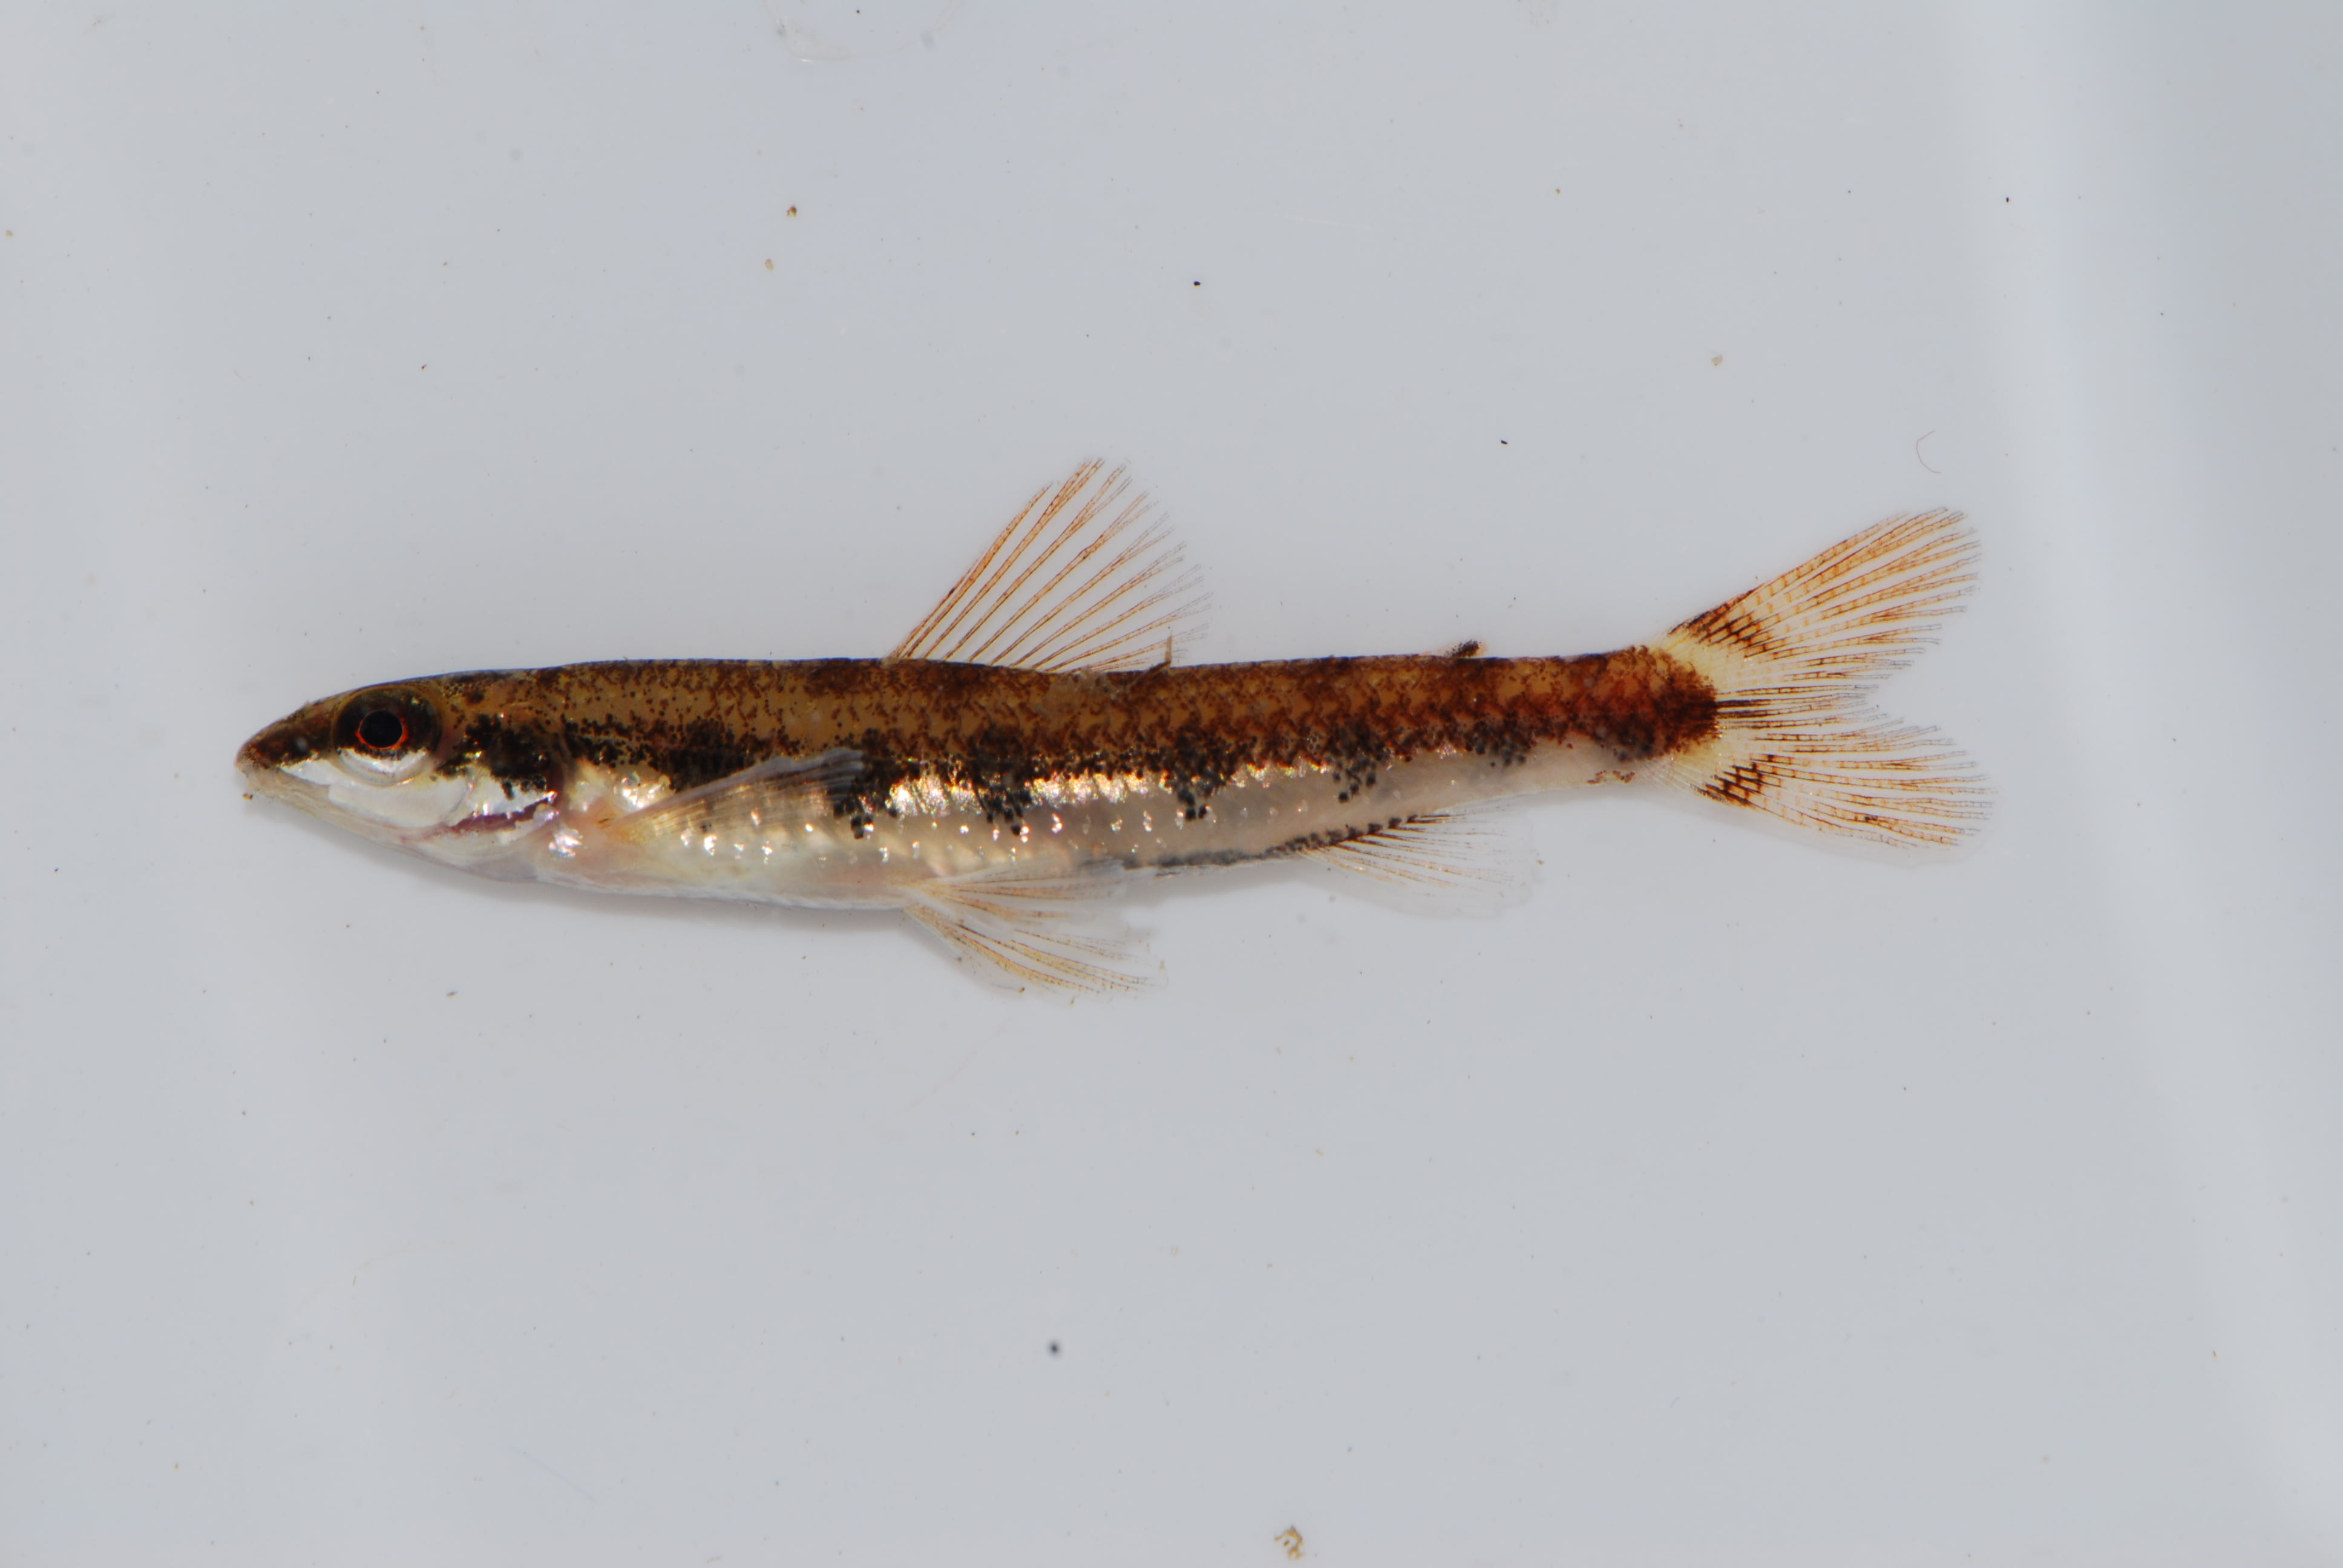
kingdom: Animalia
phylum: Chordata
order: Characiformes
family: Distichodontidae
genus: Nannocharax
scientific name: Nannocharax macropterus
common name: Broad-barred citharine
